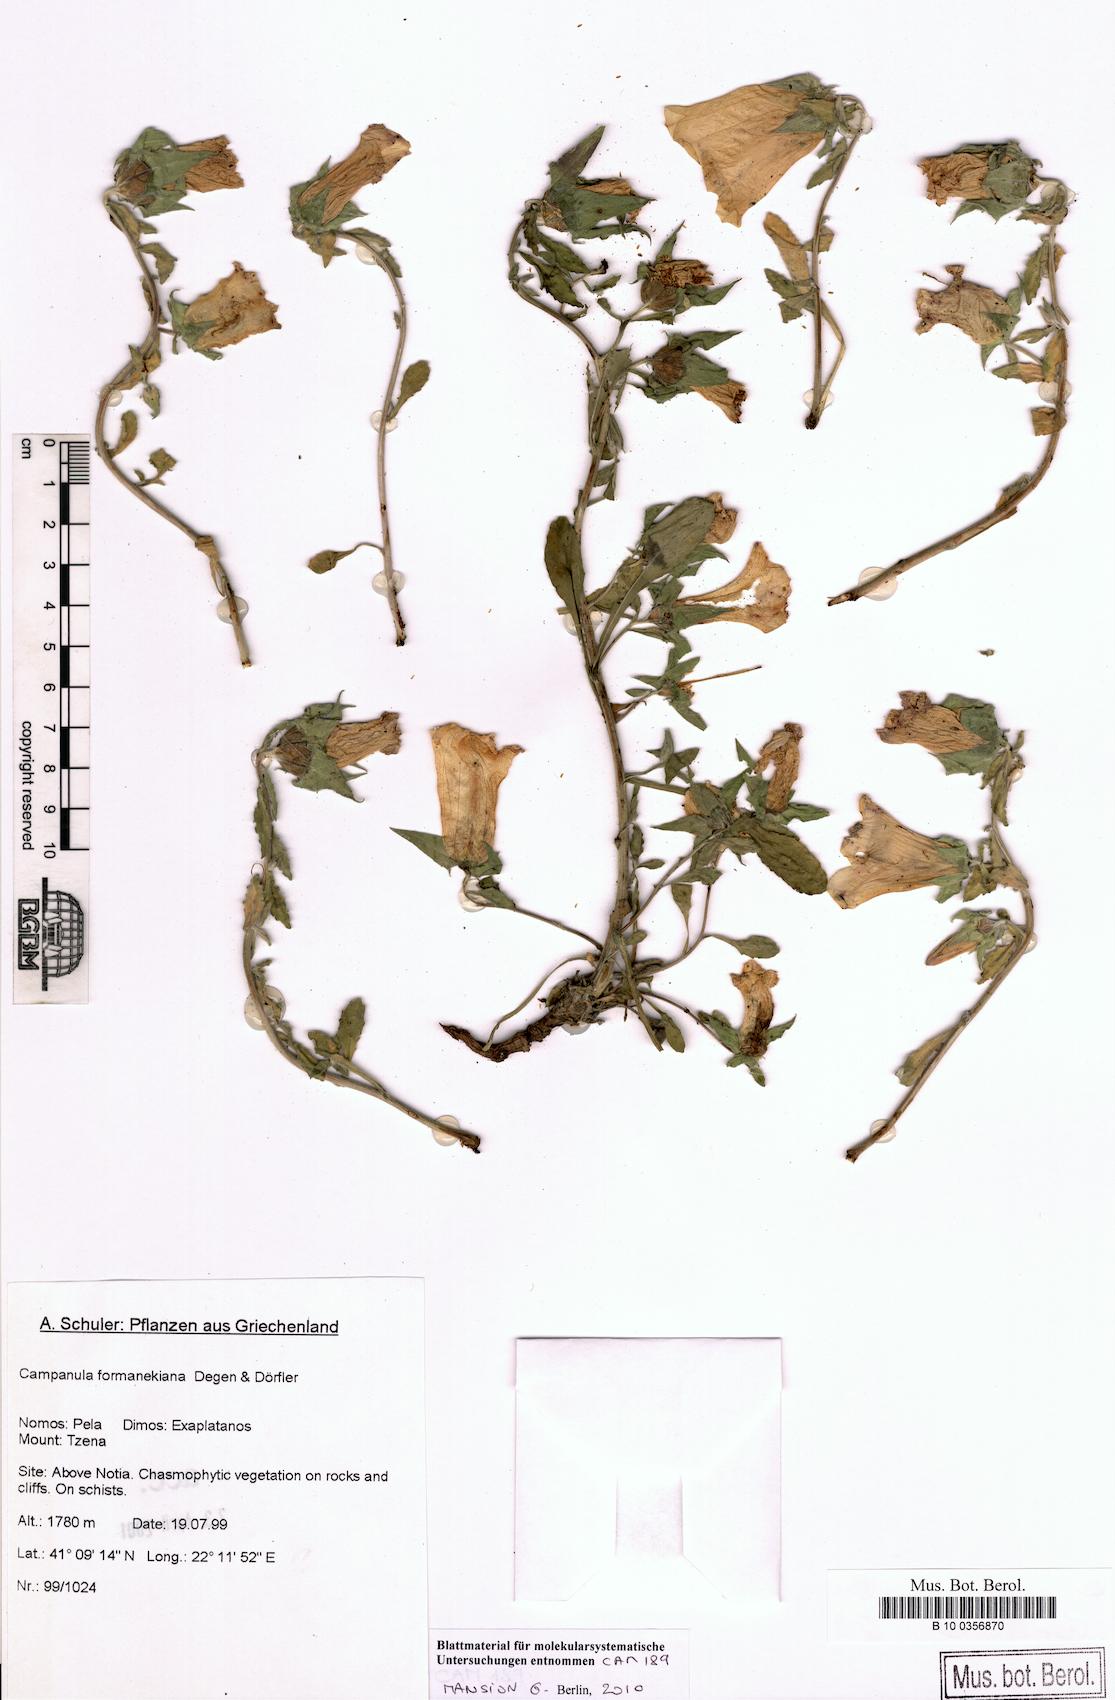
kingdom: Plantae
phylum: Tracheophyta
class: Magnoliopsida
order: Asterales
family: Campanulaceae
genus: Campanula
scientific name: Campanula formanekiana
